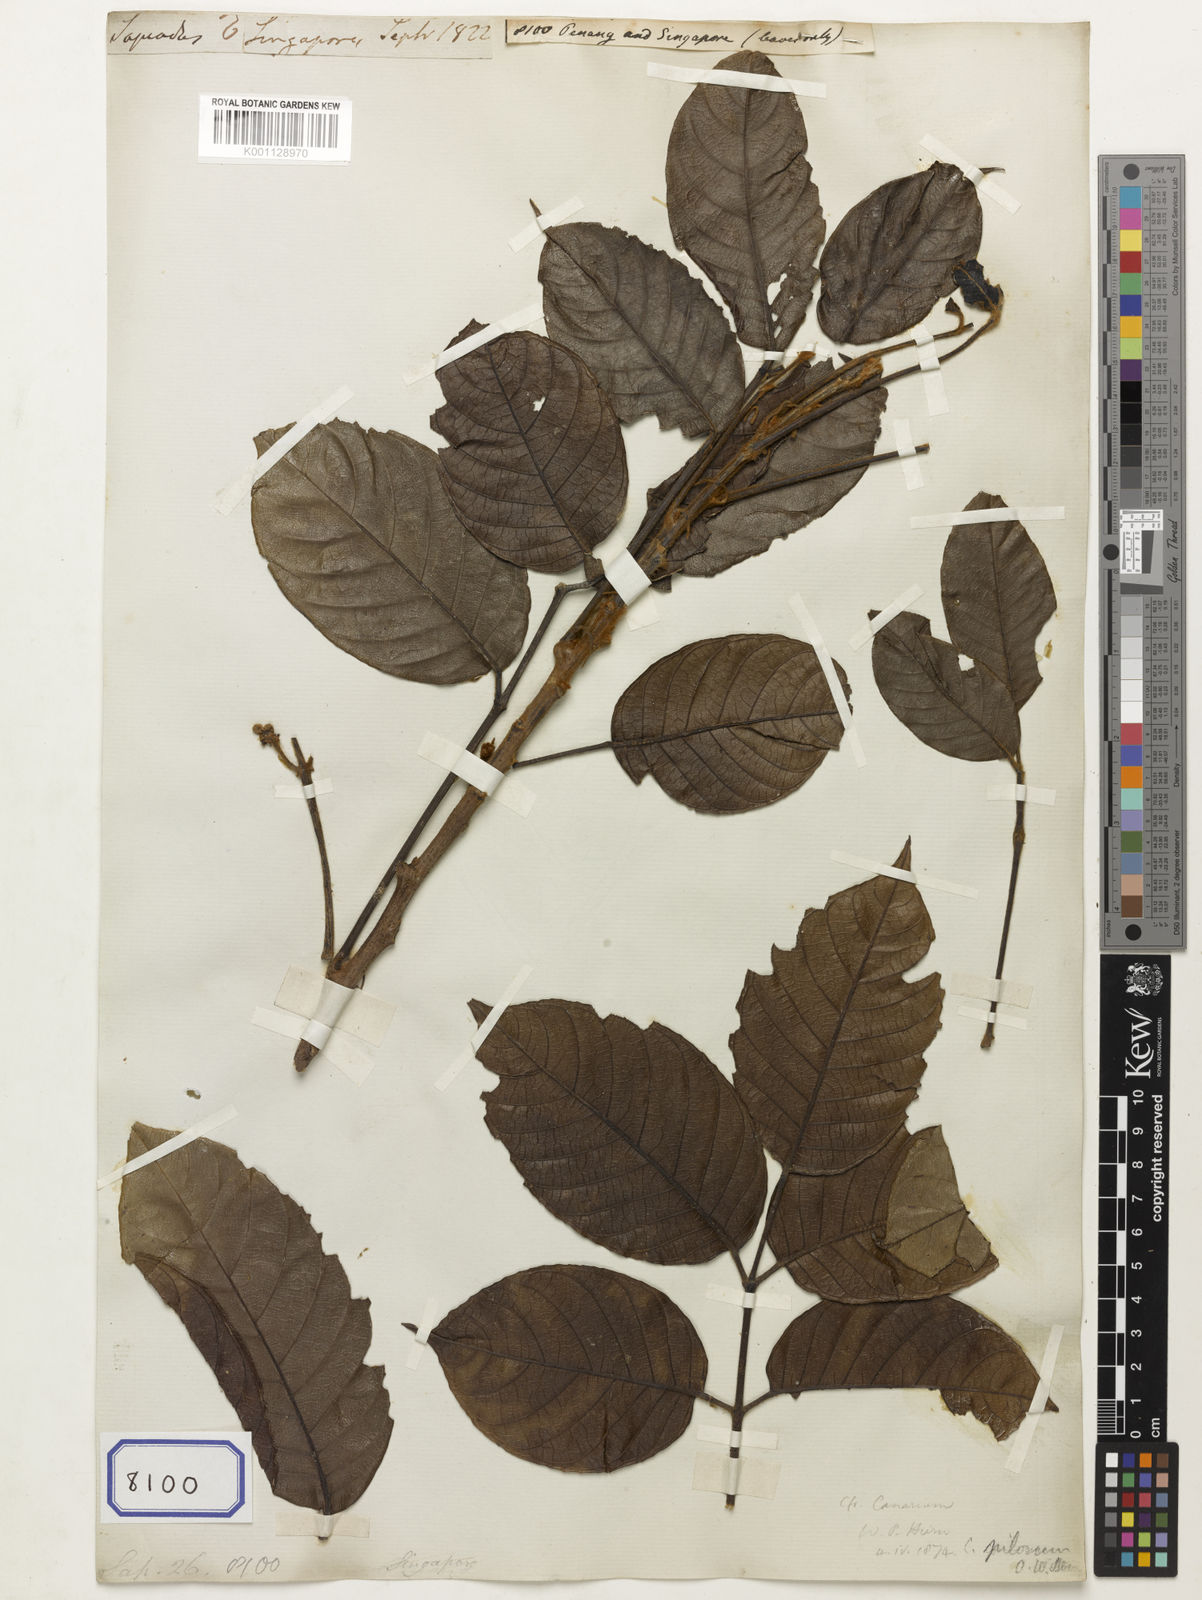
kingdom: Plantae
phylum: Tracheophyta
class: Magnoliopsida
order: Sapindales
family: Sapindaceae
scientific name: Sapindaceae
